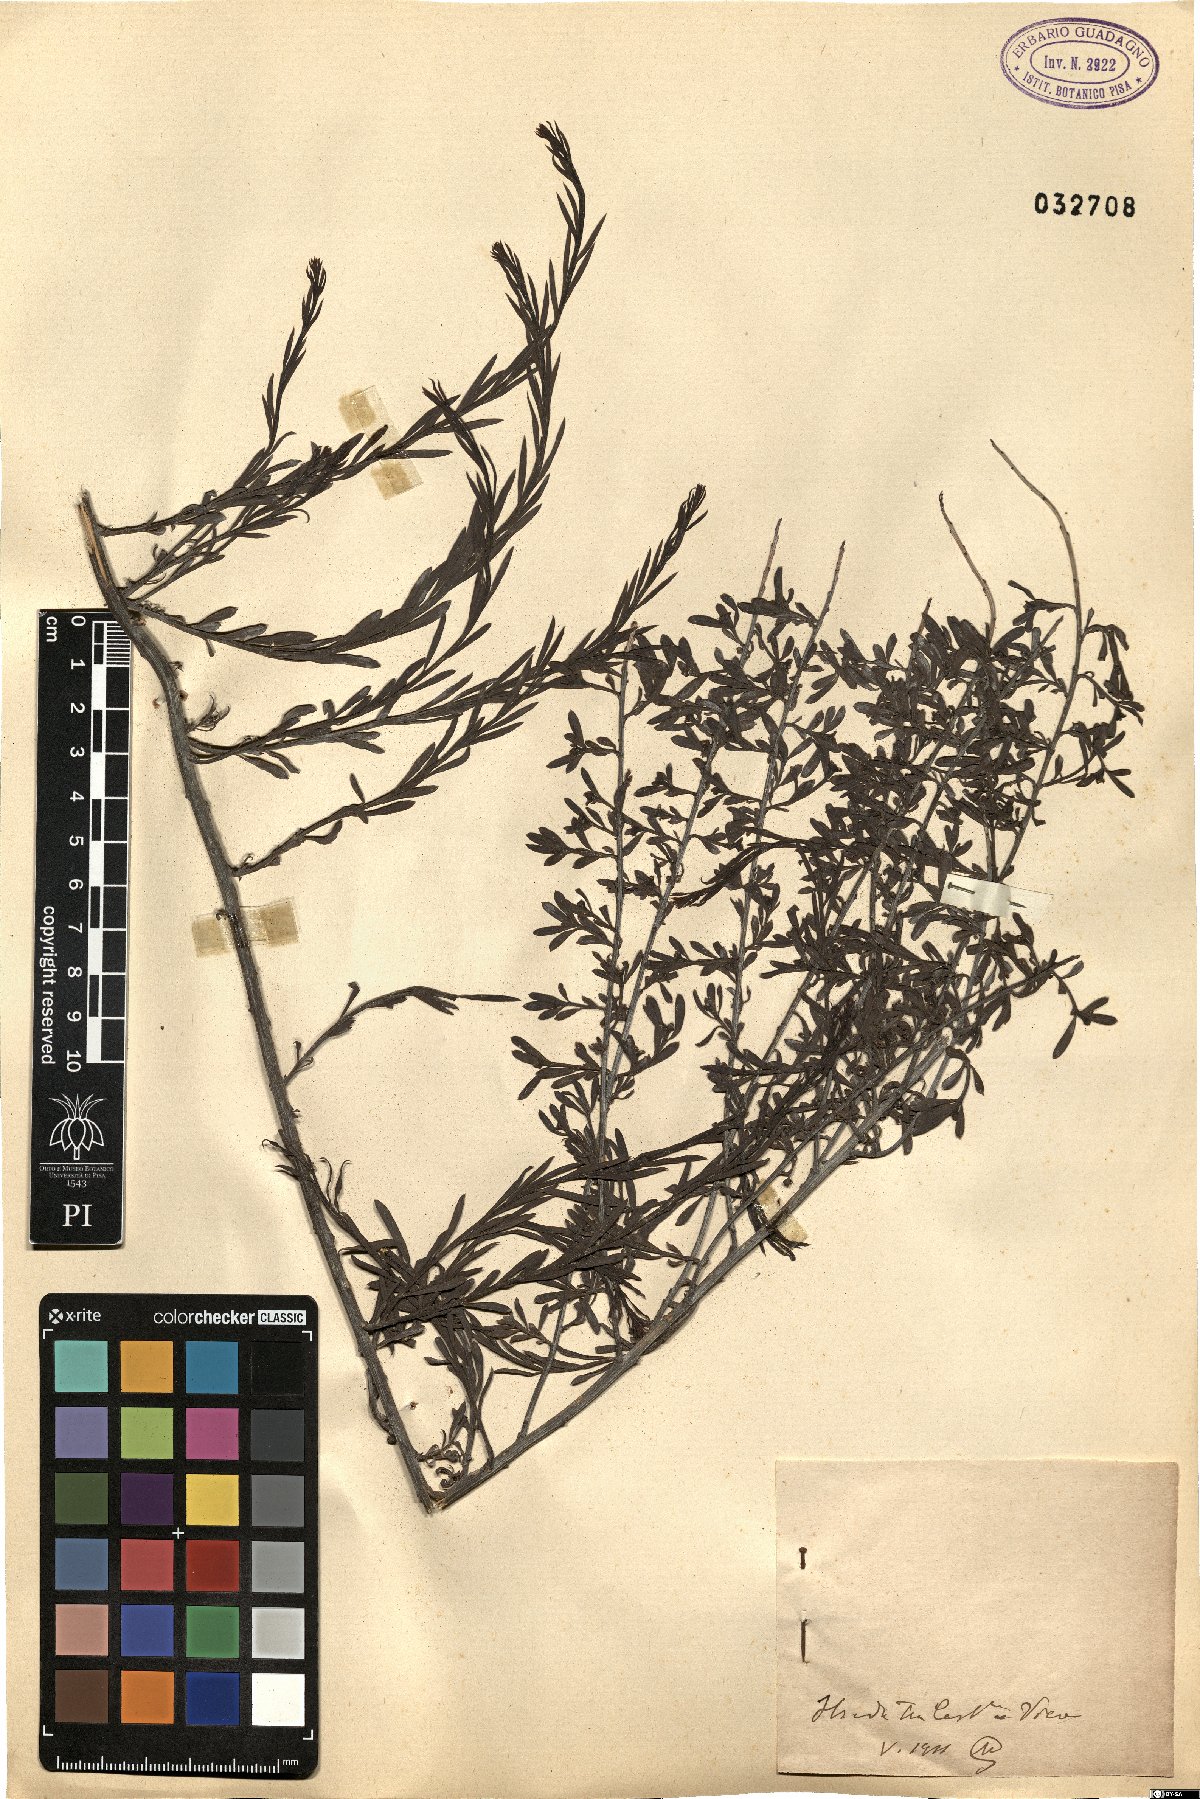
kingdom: Plantae
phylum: Tracheophyta
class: Magnoliopsida
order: Santalales
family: Santalaceae
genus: Osyris
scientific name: Osyris
